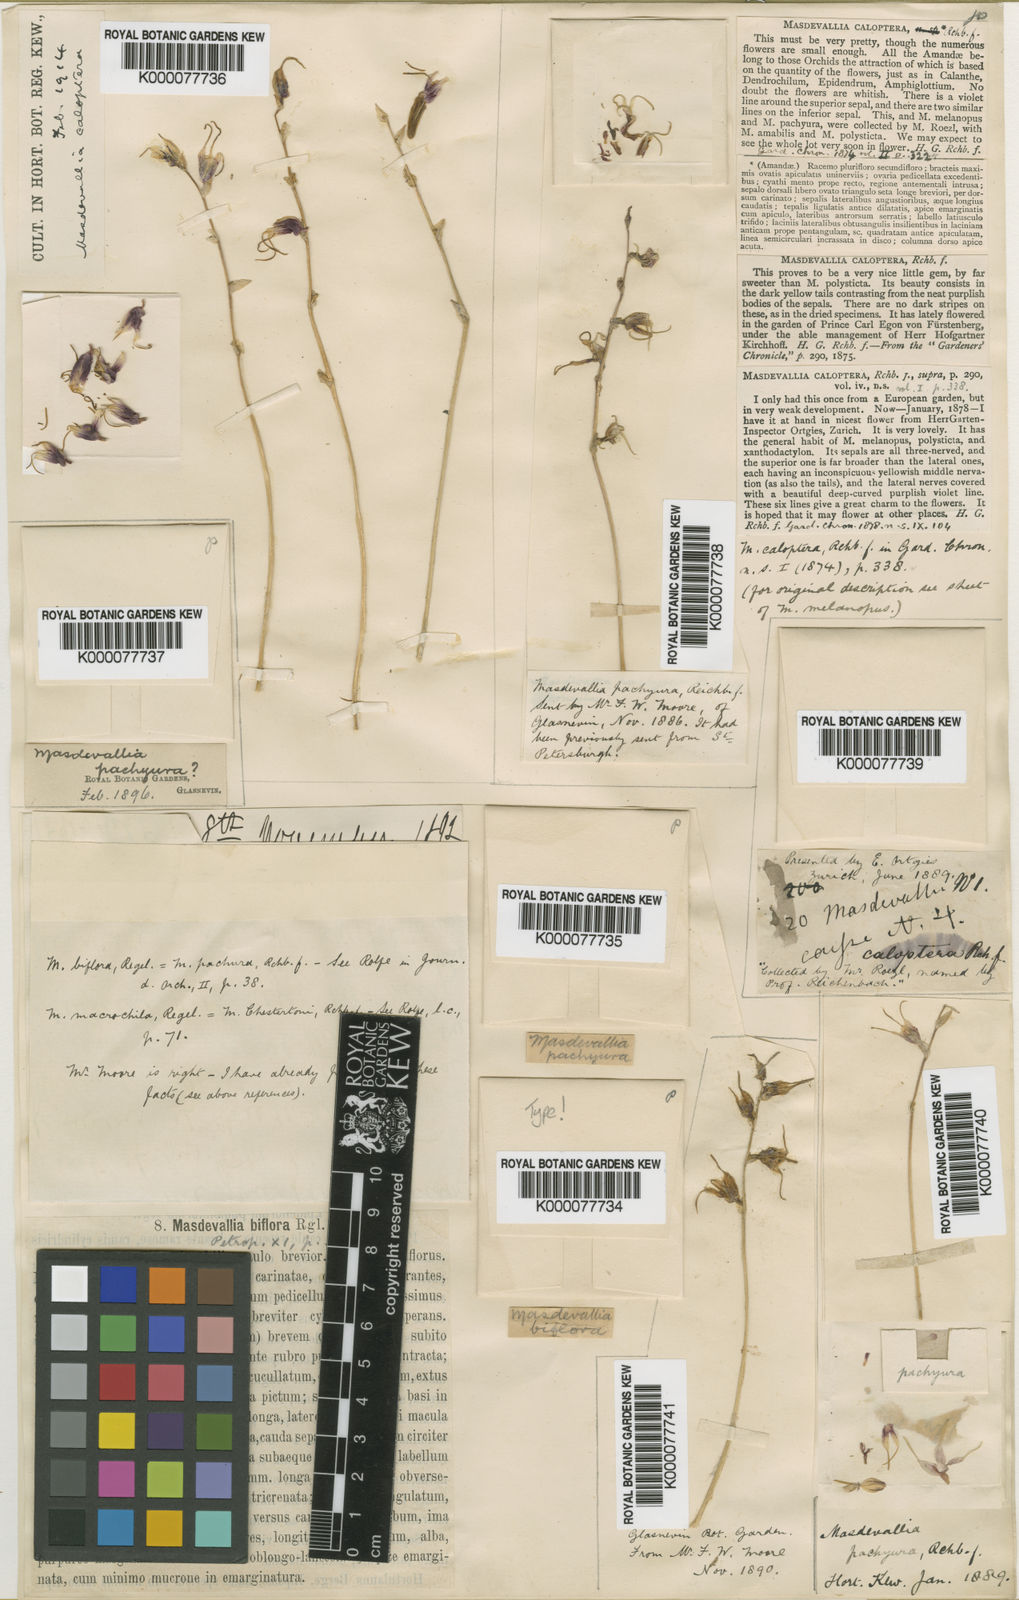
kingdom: Plantae
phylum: Tracheophyta
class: Liliopsida
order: Asparagales
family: Orchidaceae
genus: Masdevallia
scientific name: Masdevallia caloptera
